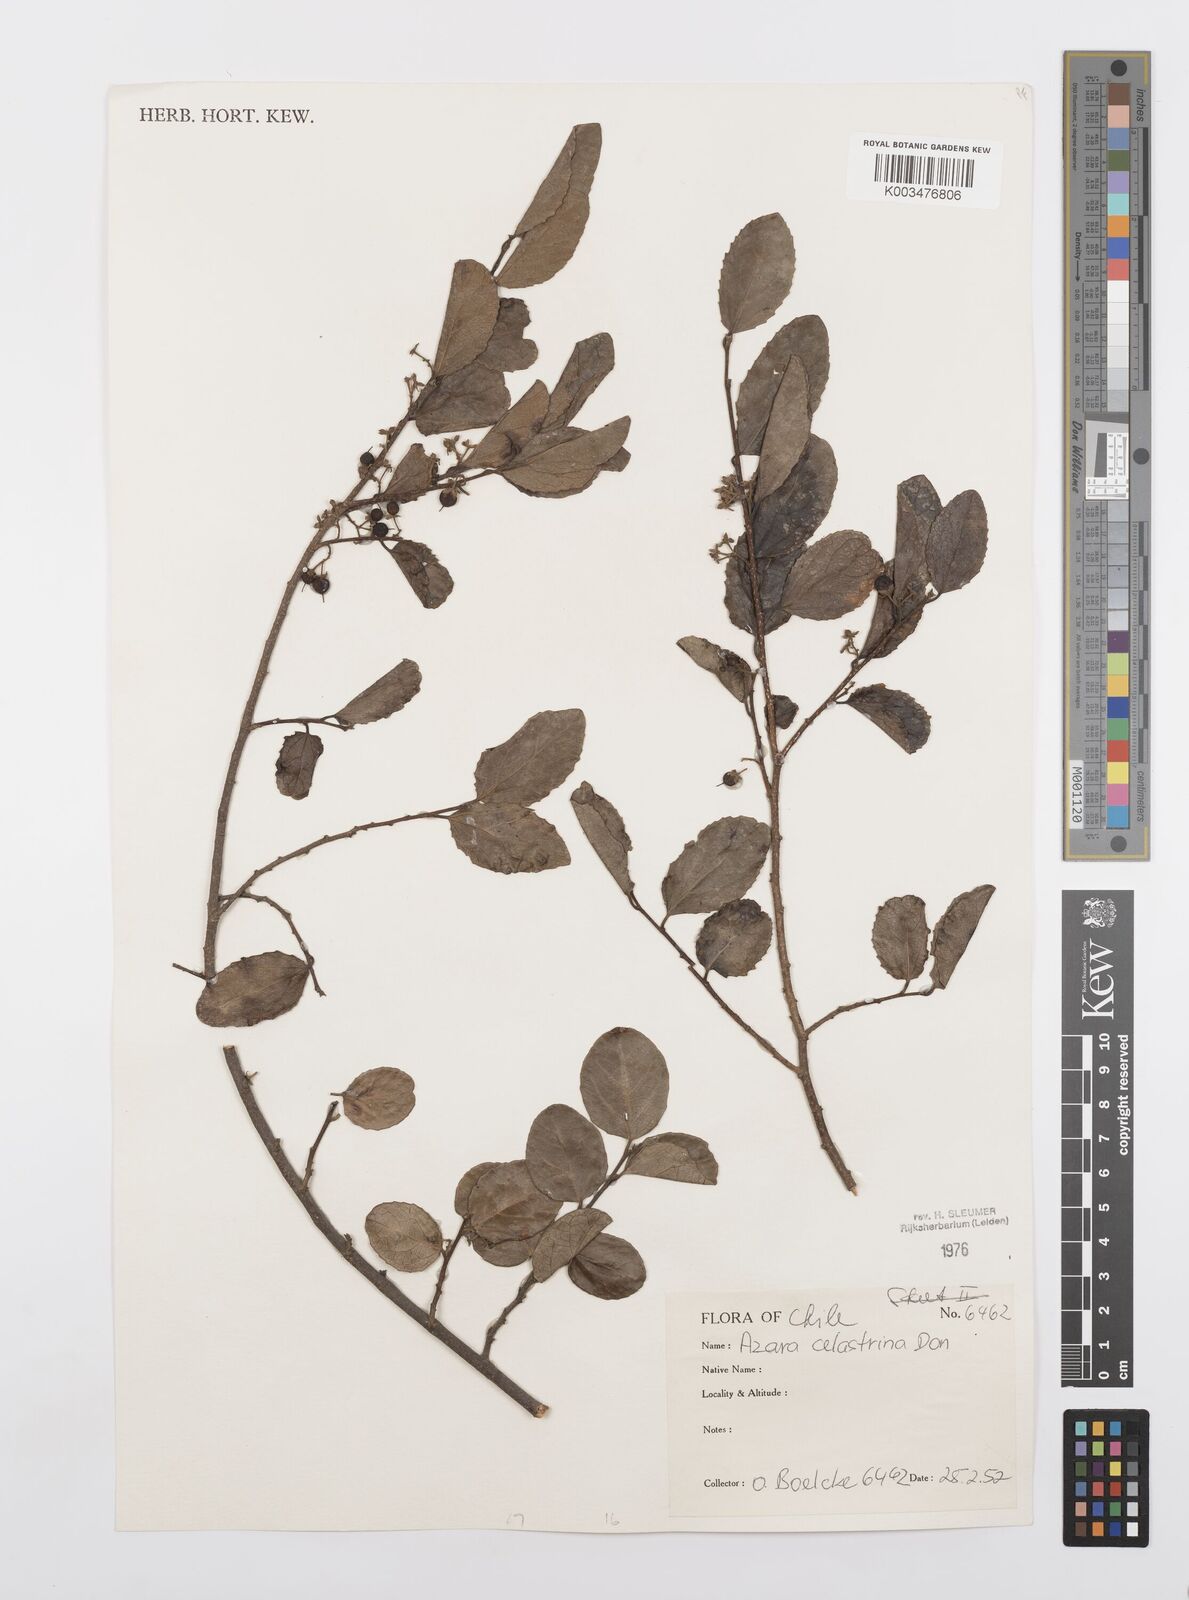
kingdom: Plantae
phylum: Tracheophyta
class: Magnoliopsida
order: Malpighiales
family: Salicaceae
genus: Azara
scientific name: Azara celastrina
